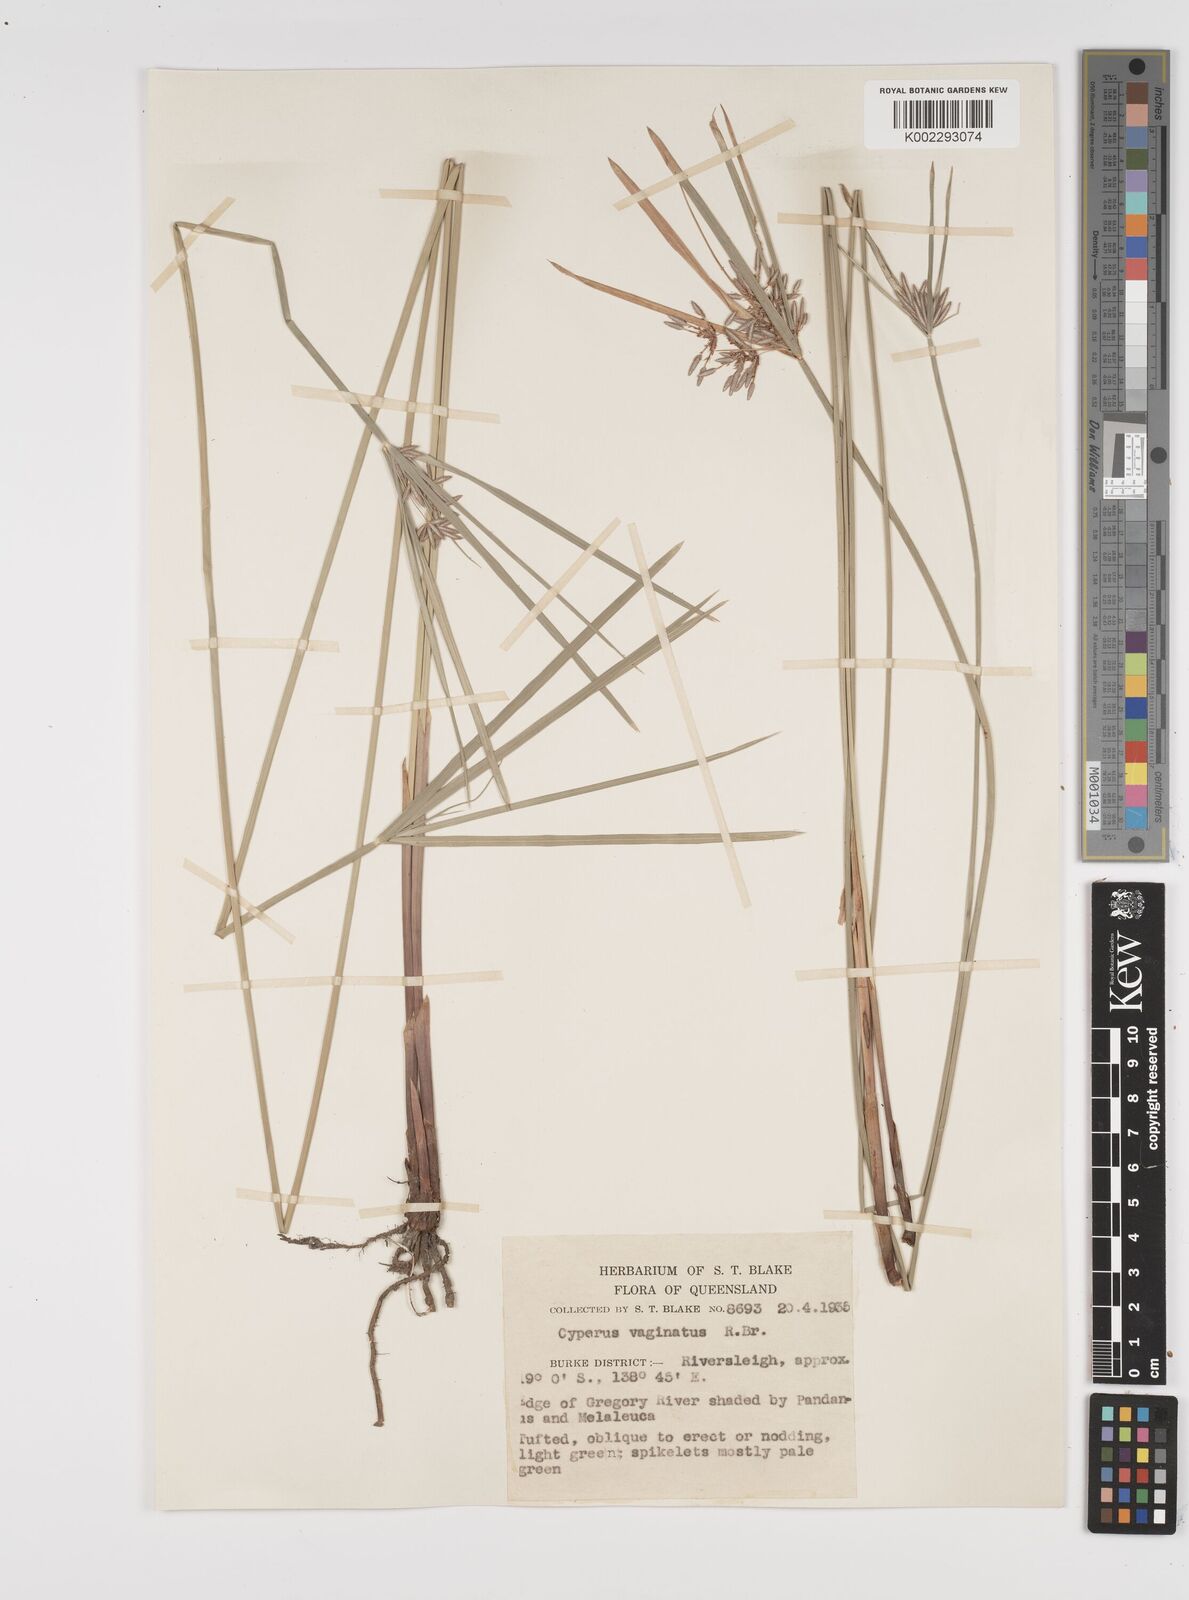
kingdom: Plantae
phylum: Tracheophyta
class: Liliopsida
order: Poales
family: Cyperaceae
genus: Cyperus
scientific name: Cyperus vaginatus
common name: Stiff-leaved flat-sedge
